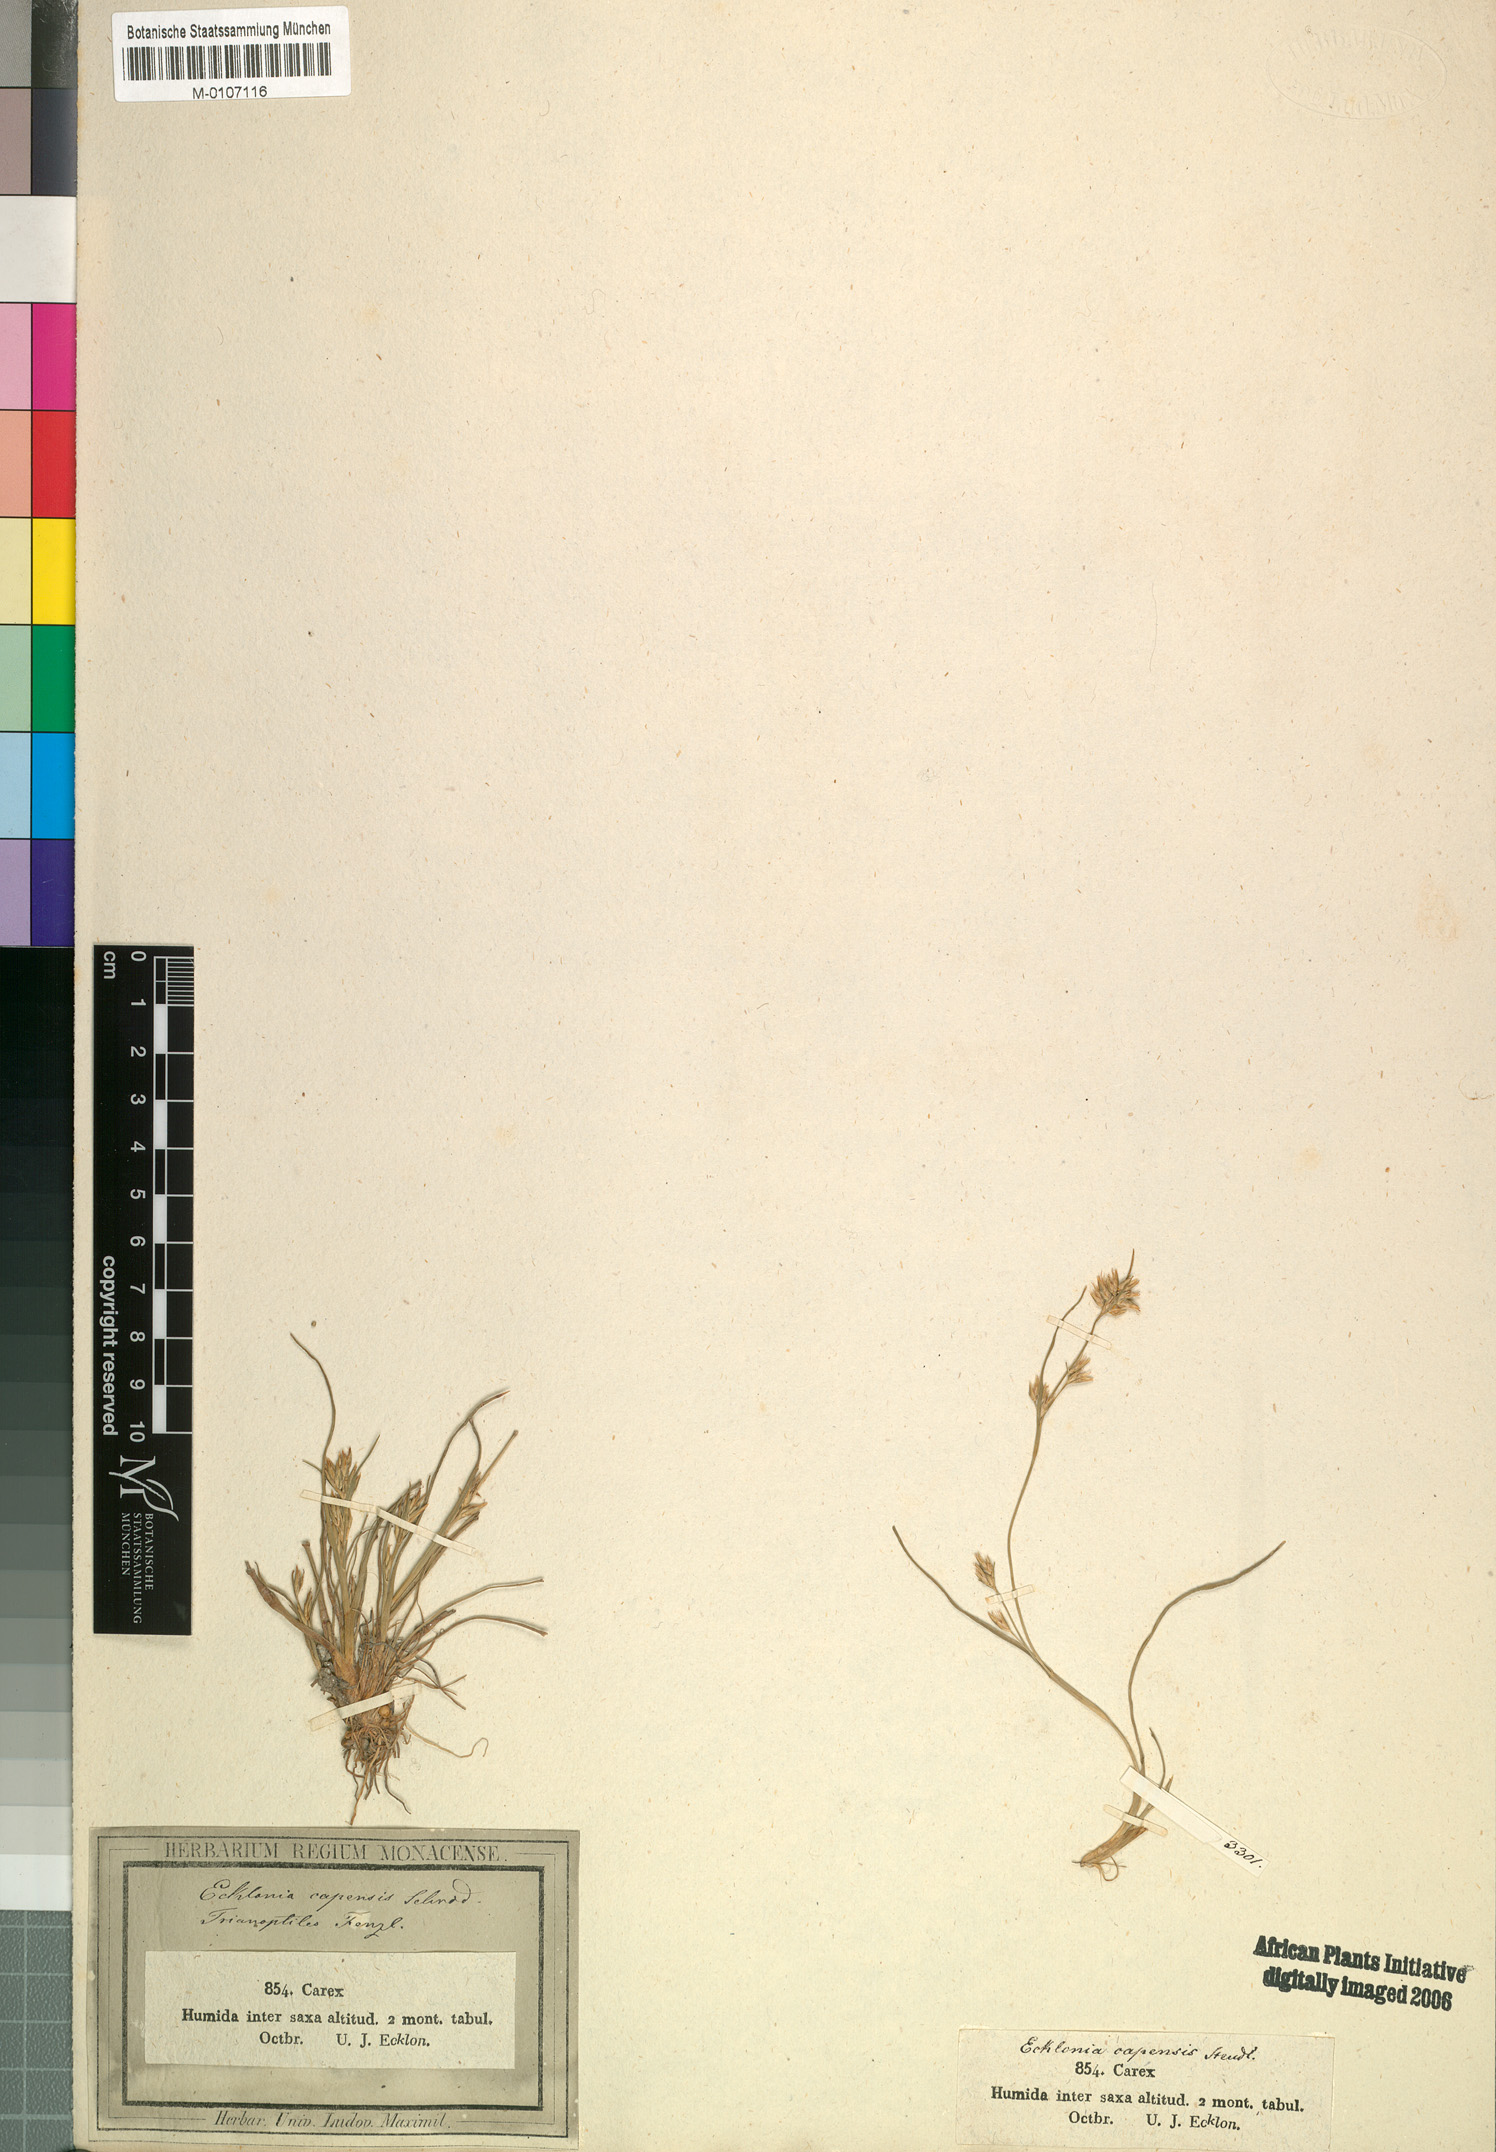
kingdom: Plantae
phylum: Tracheophyta
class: Liliopsida
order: Poales
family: Cyperaceae
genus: Trianoptiles
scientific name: Trianoptiles capensis
